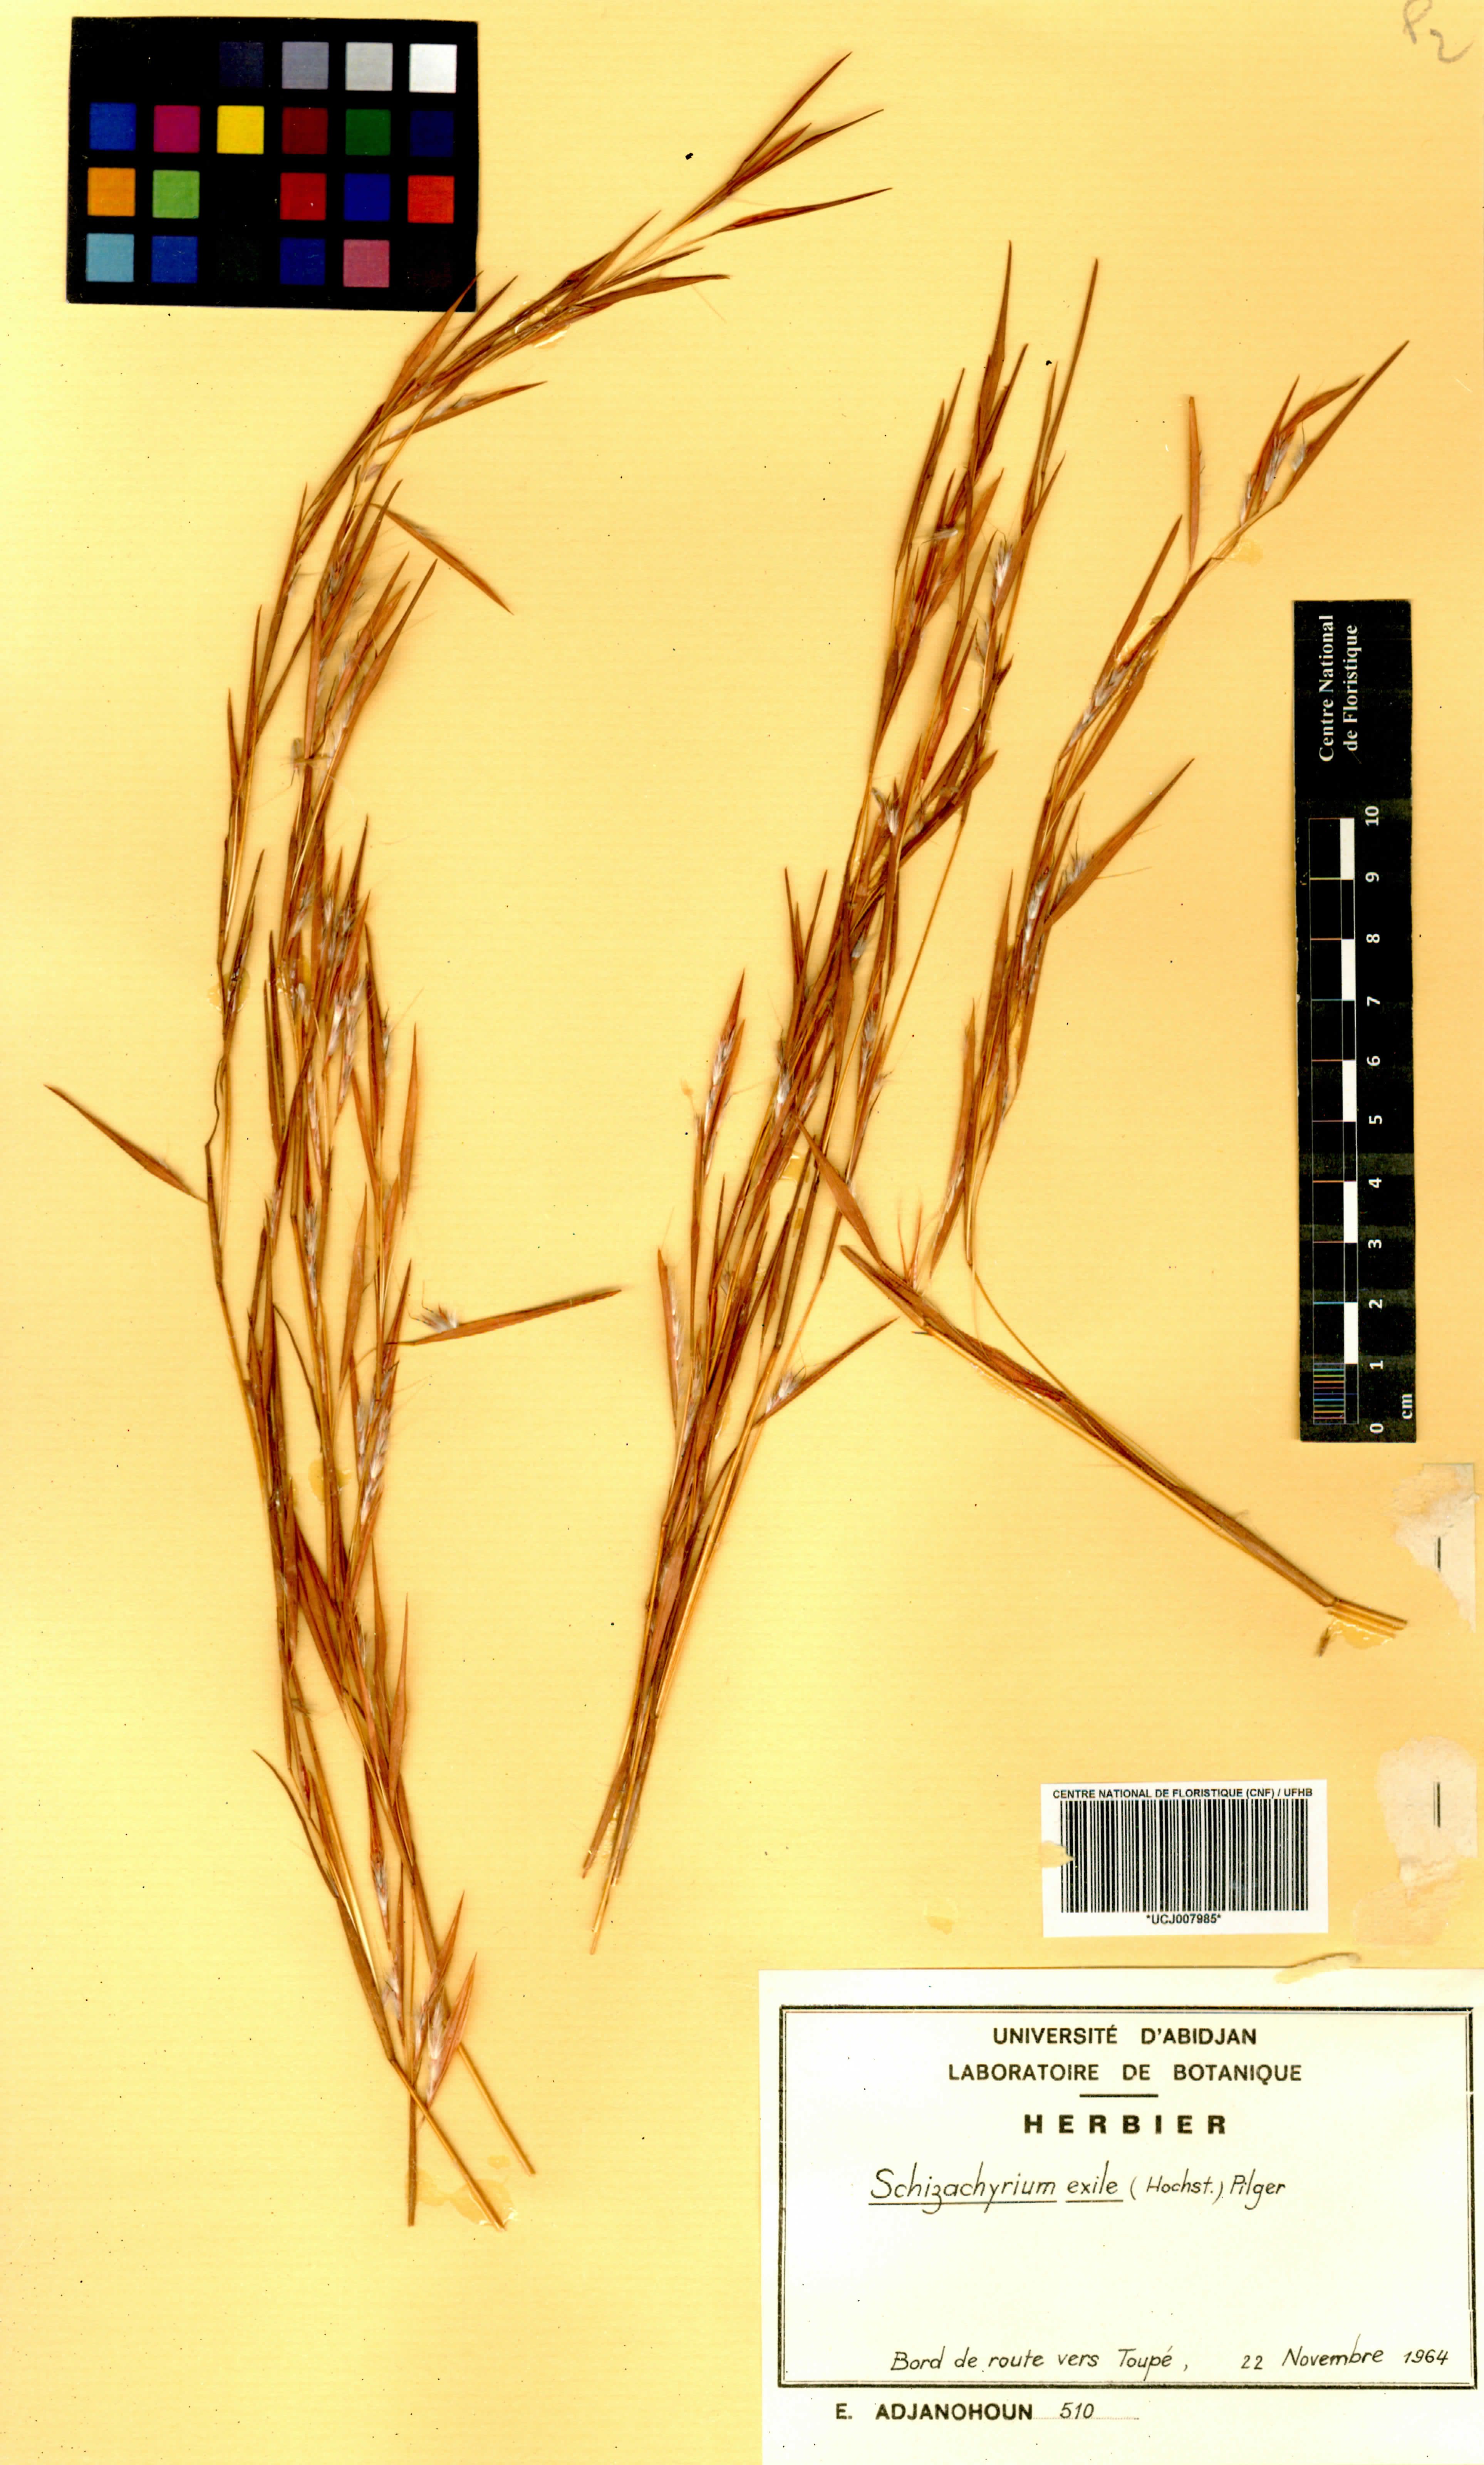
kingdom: Plantae
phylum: Tracheophyta
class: Liliopsida
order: Poales
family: Poaceae
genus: Schizachyrium
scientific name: Schizachyrium exile
